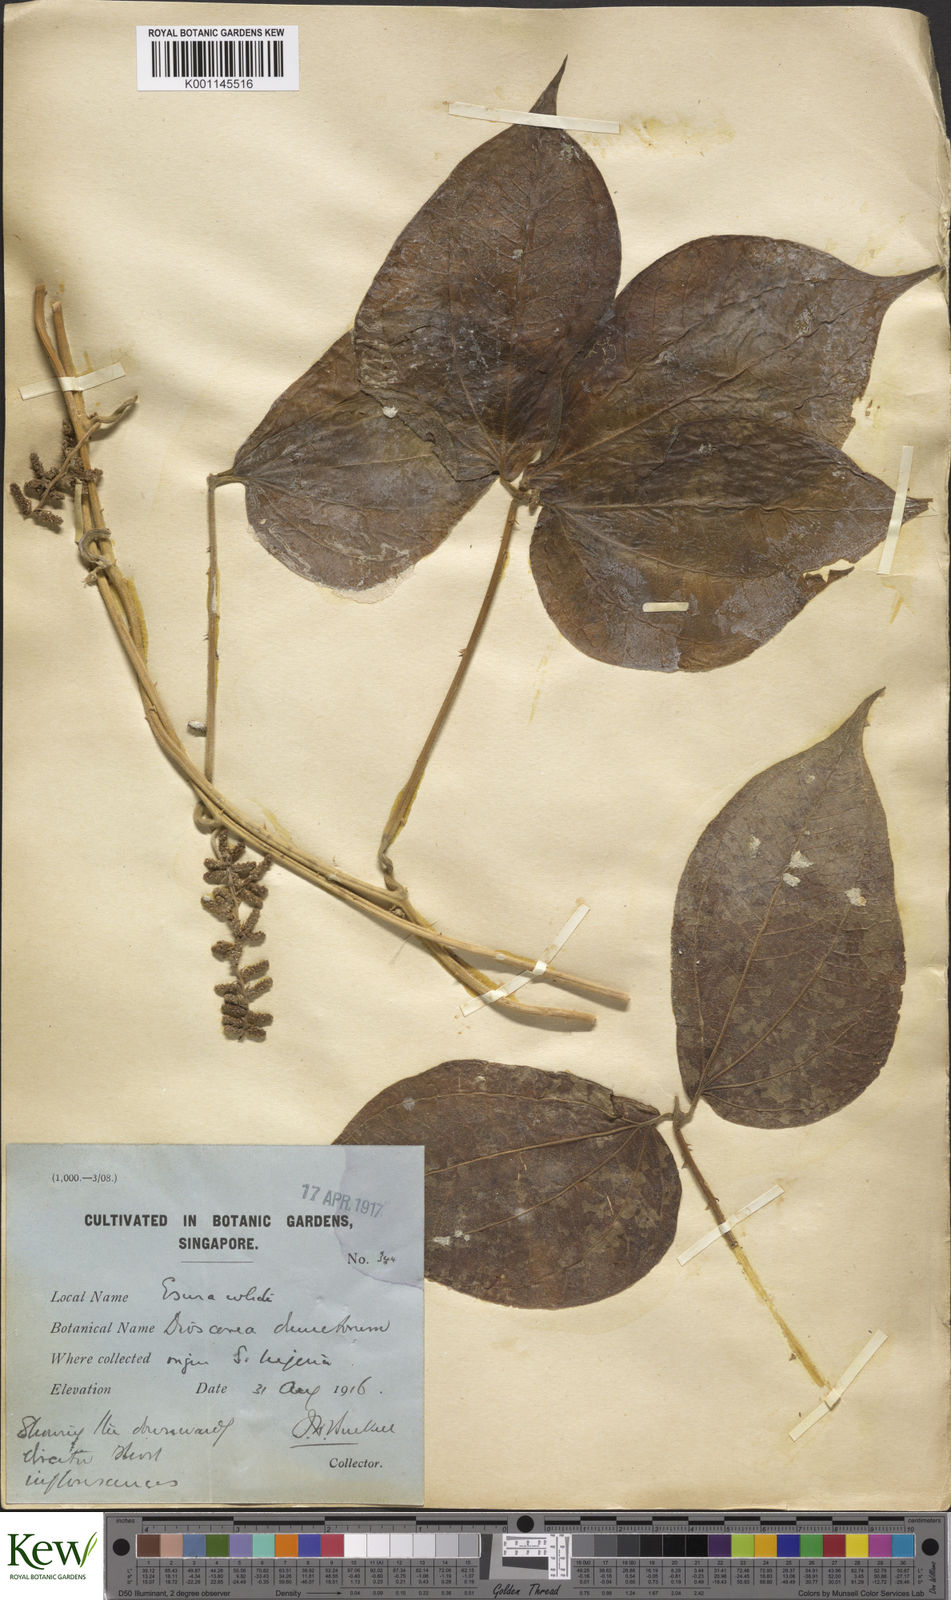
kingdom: Plantae
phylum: Tracheophyta
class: Liliopsida
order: Dioscoreales
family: Dioscoreaceae
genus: Dioscorea
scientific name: Dioscorea dumetorum
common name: African bitter yam
